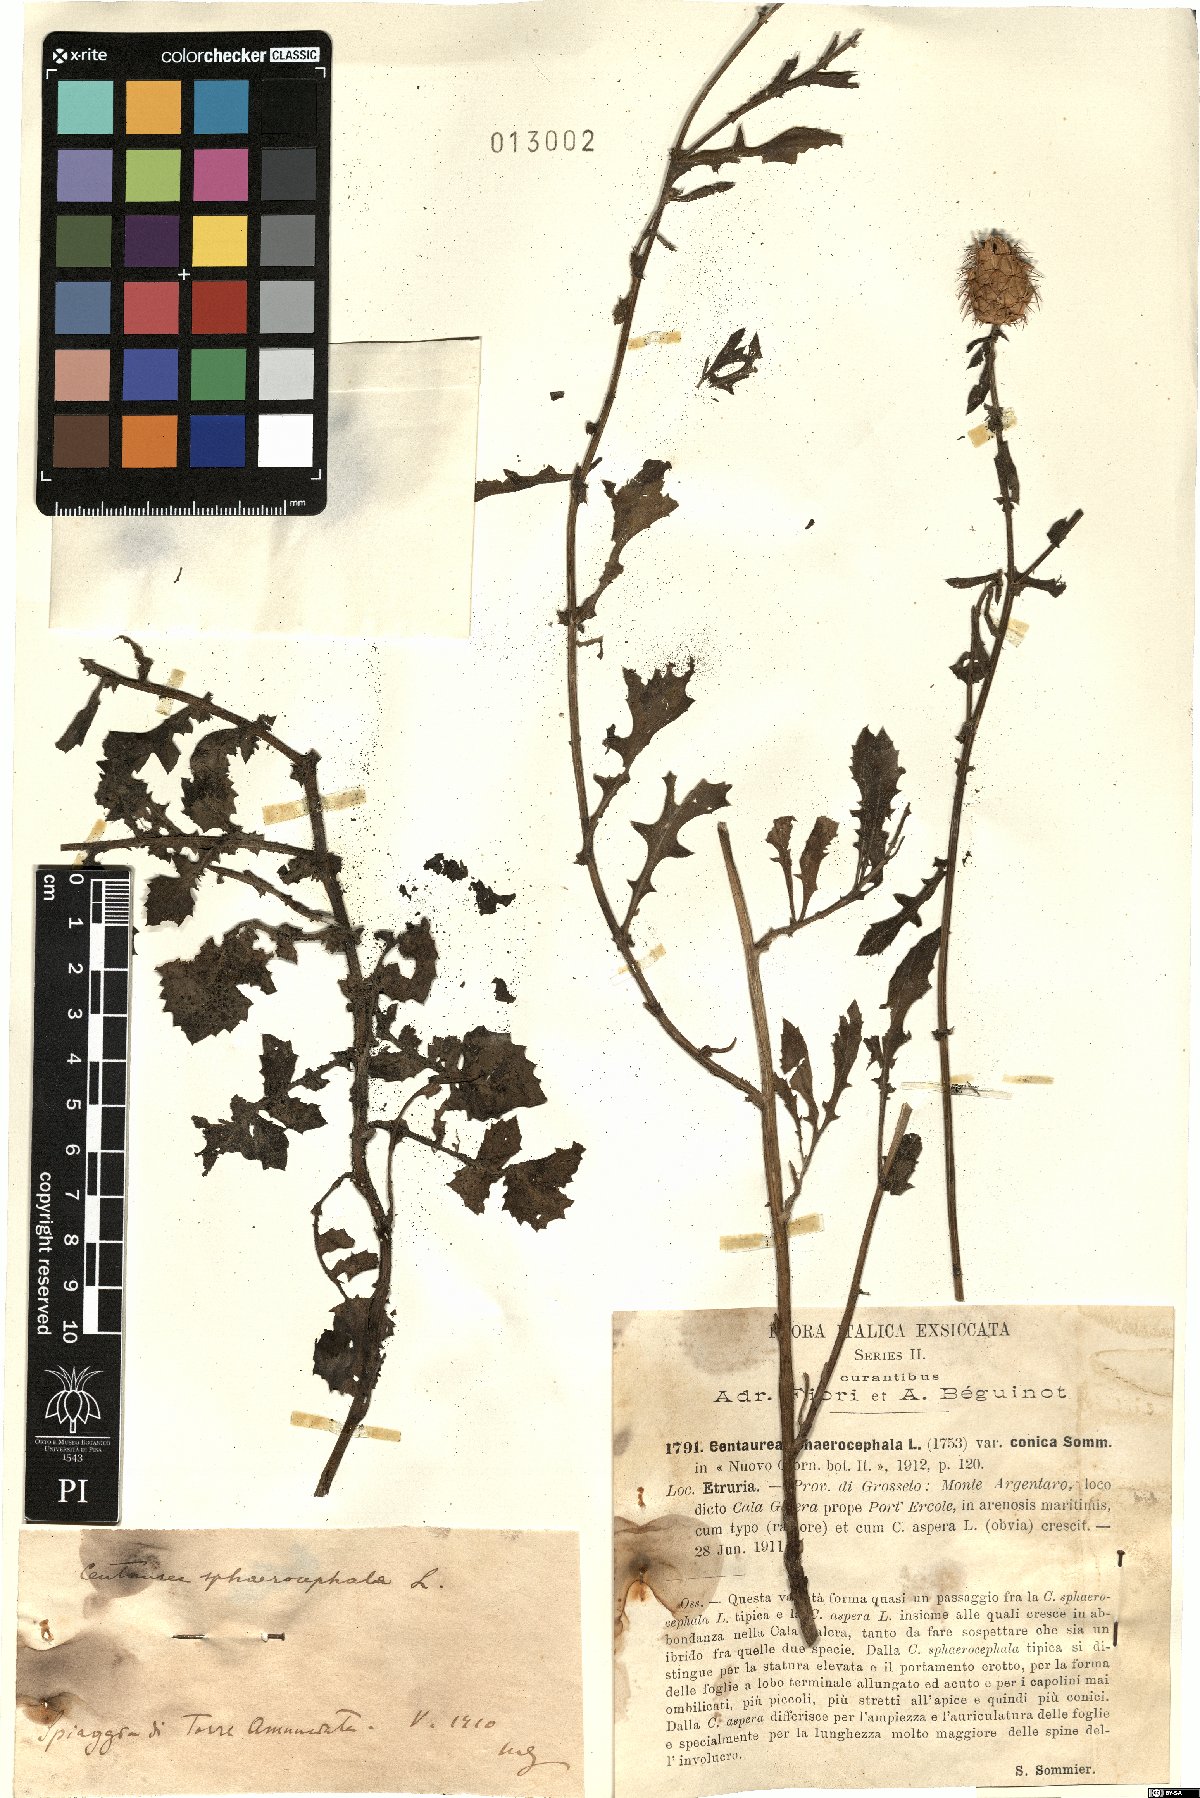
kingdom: Plantae
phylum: Tracheophyta
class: Magnoliopsida
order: Asterales
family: Asteraceae
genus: Centaurea
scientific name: Centaurea sphaerocephala
